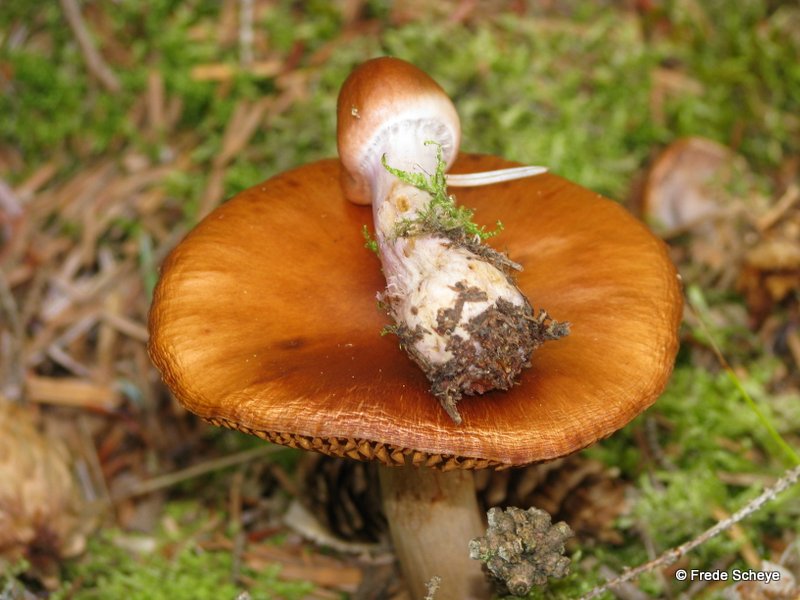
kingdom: Fungi
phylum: Basidiomycota
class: Agaricomycetes
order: Agaricales
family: Cortinariaceae
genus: Cortinarius
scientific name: Cortinarius collinitus
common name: spættet slørhat
